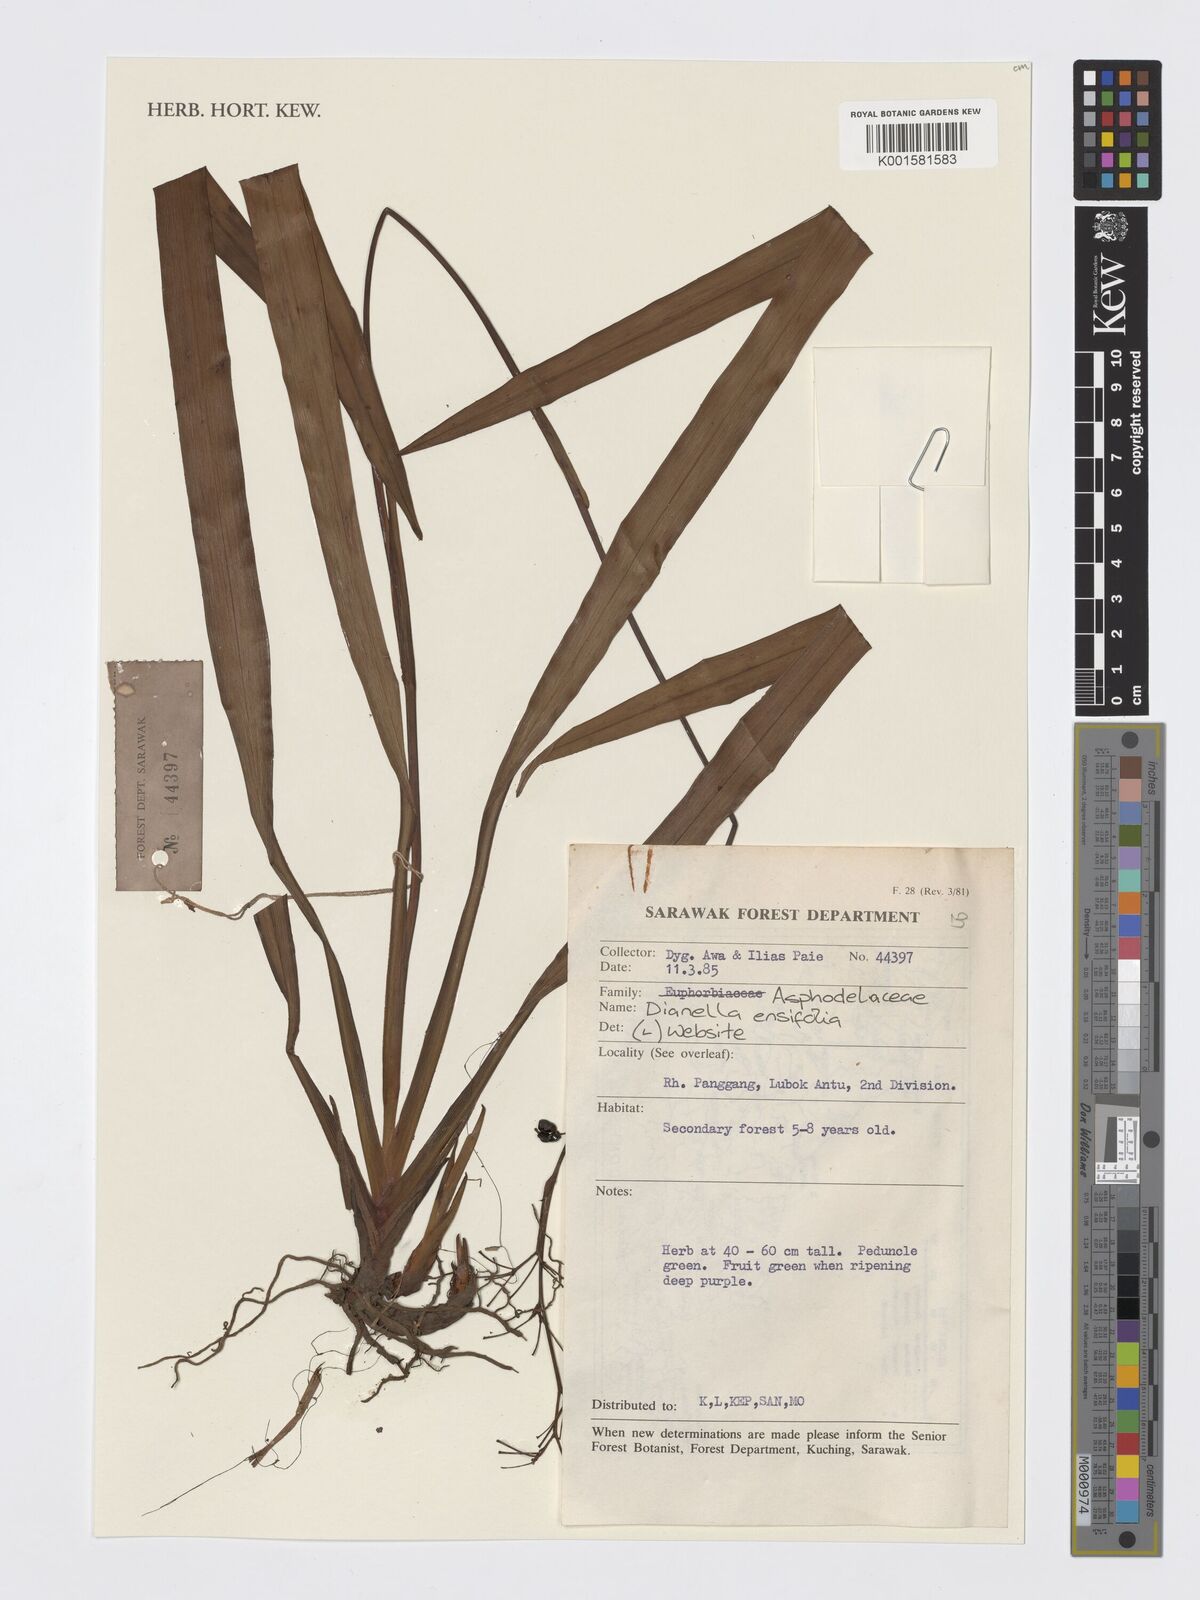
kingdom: Plantae
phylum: Tracheophyta
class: Liliopsida
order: Asparagales
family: Asphodelaceae
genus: Dianella
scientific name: Dianella ensifolia
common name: New zealand lilyplant
